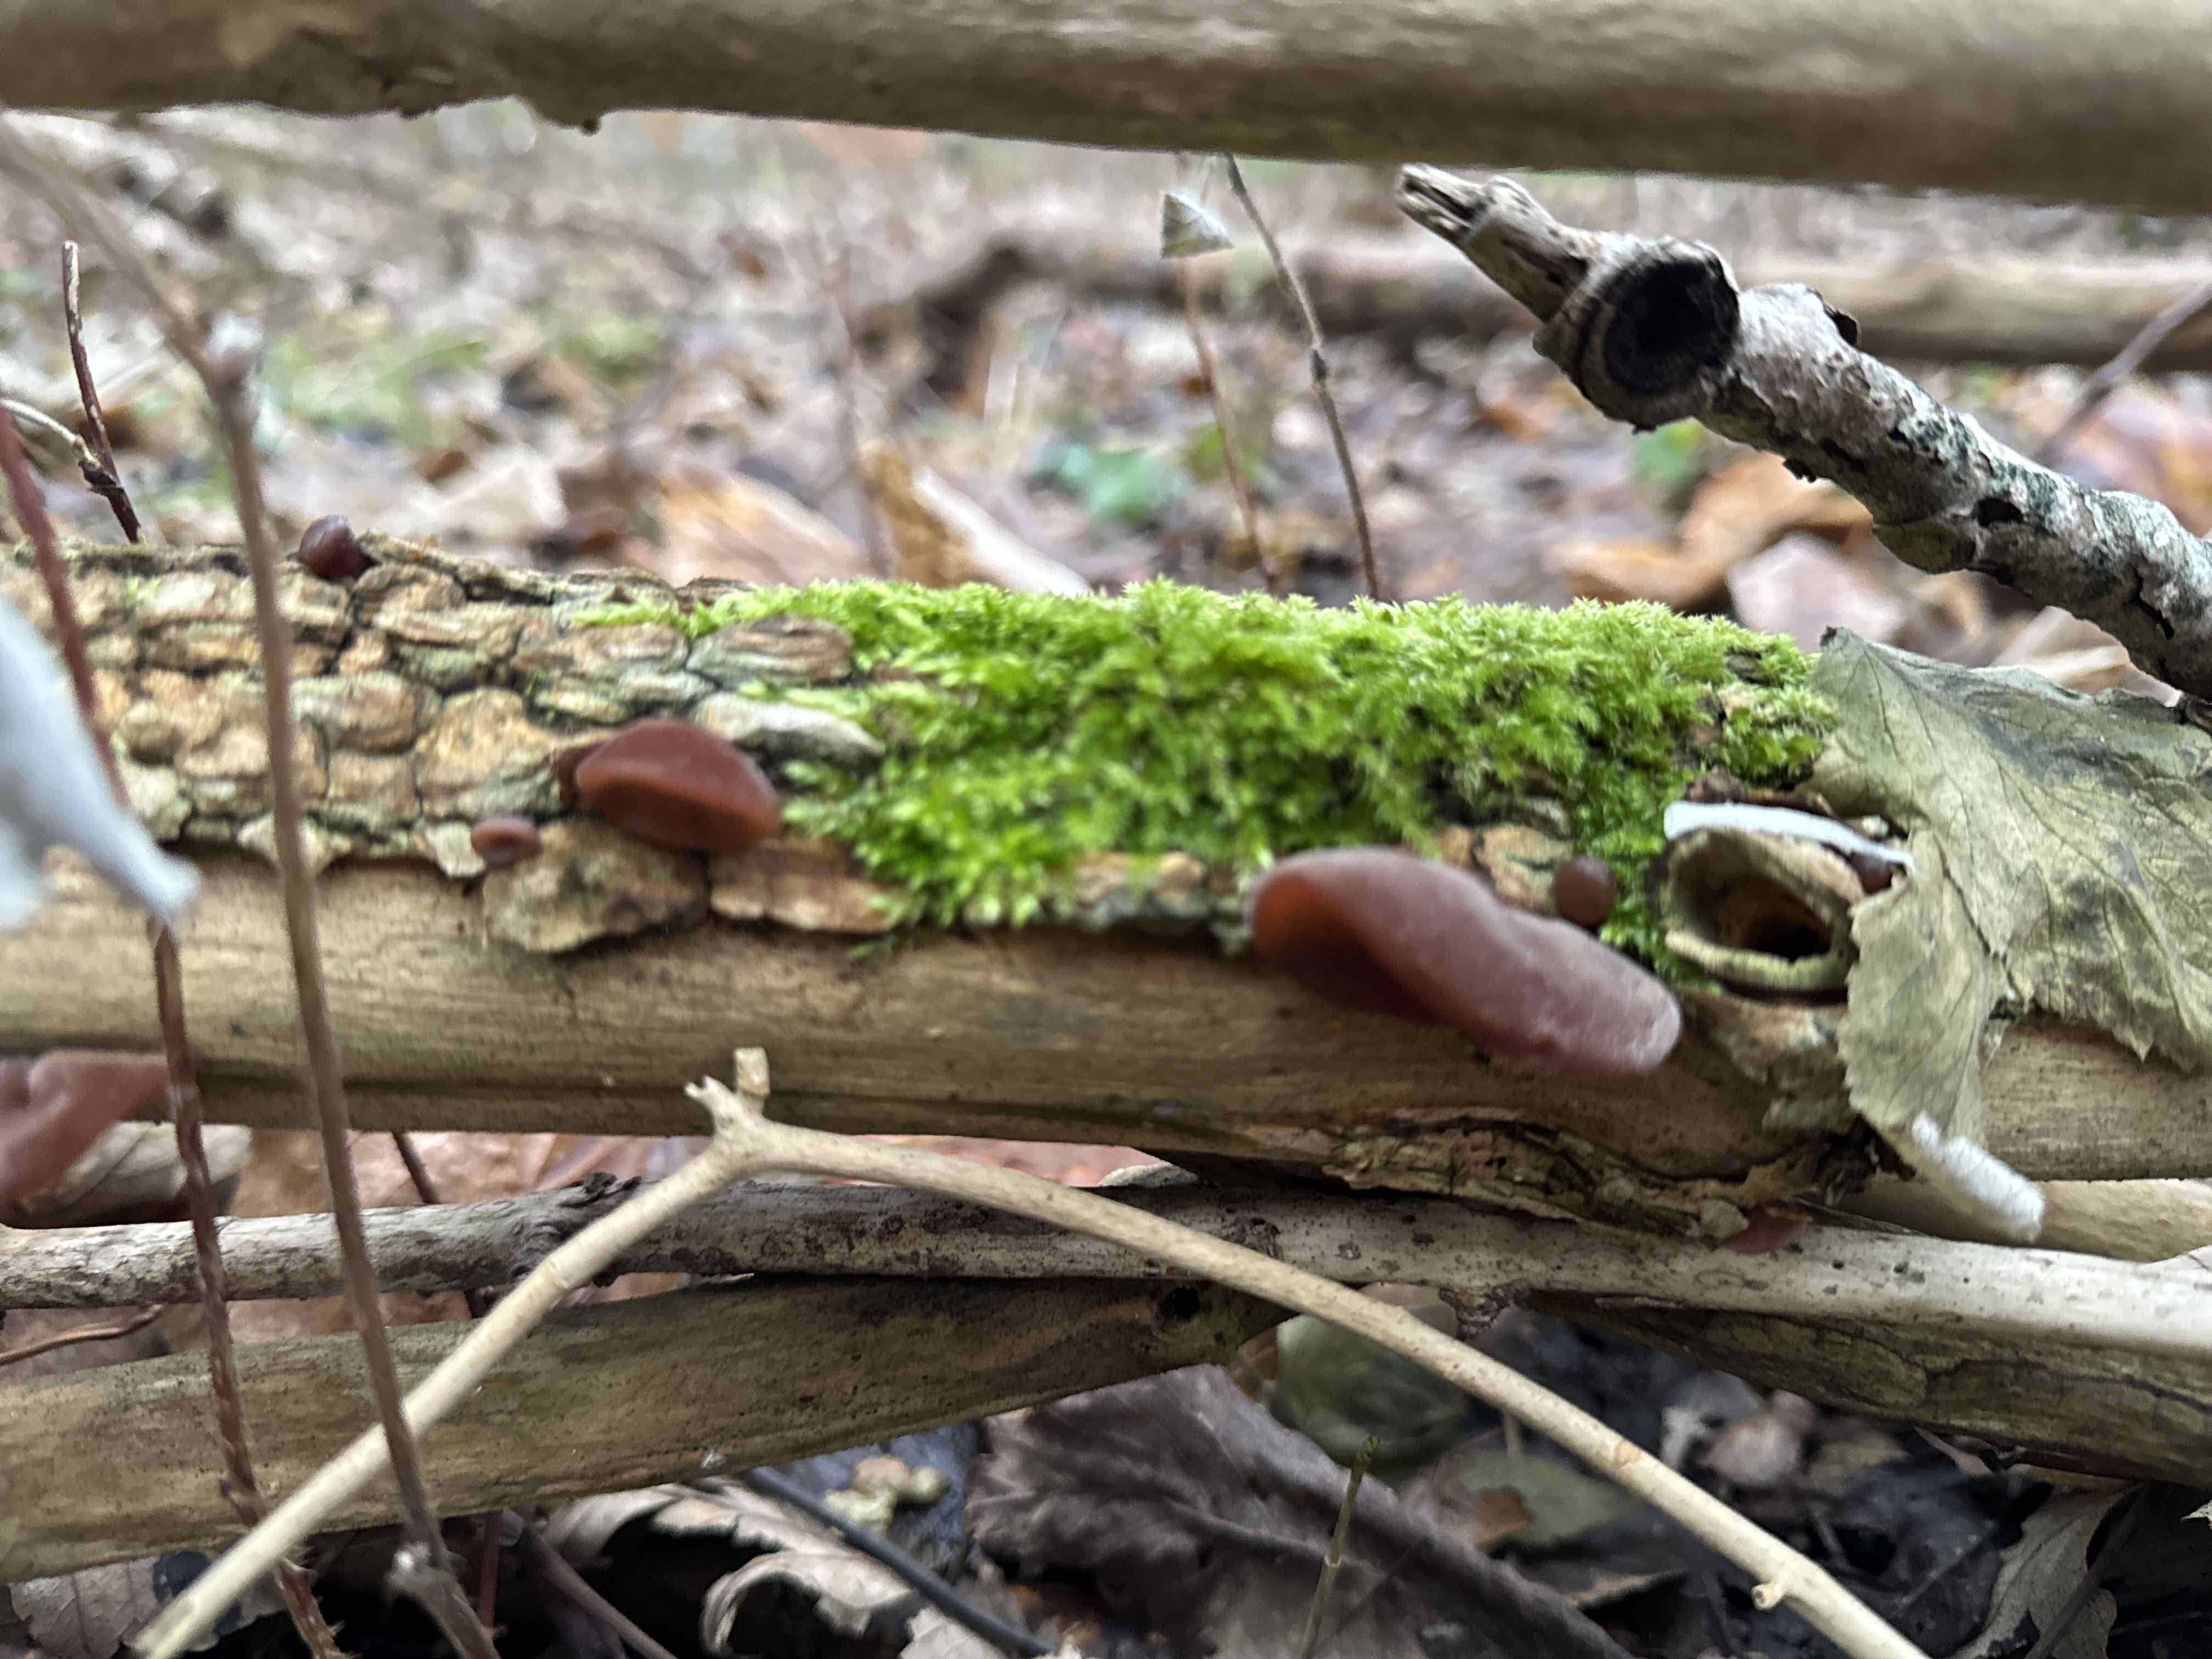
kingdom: Fungi
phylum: Basidiomycota
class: Agaricomycetes
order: Auriculariales
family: Auriculariaceae
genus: Auricularia
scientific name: Auricularia auricula-judae
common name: almindelig judasøre
